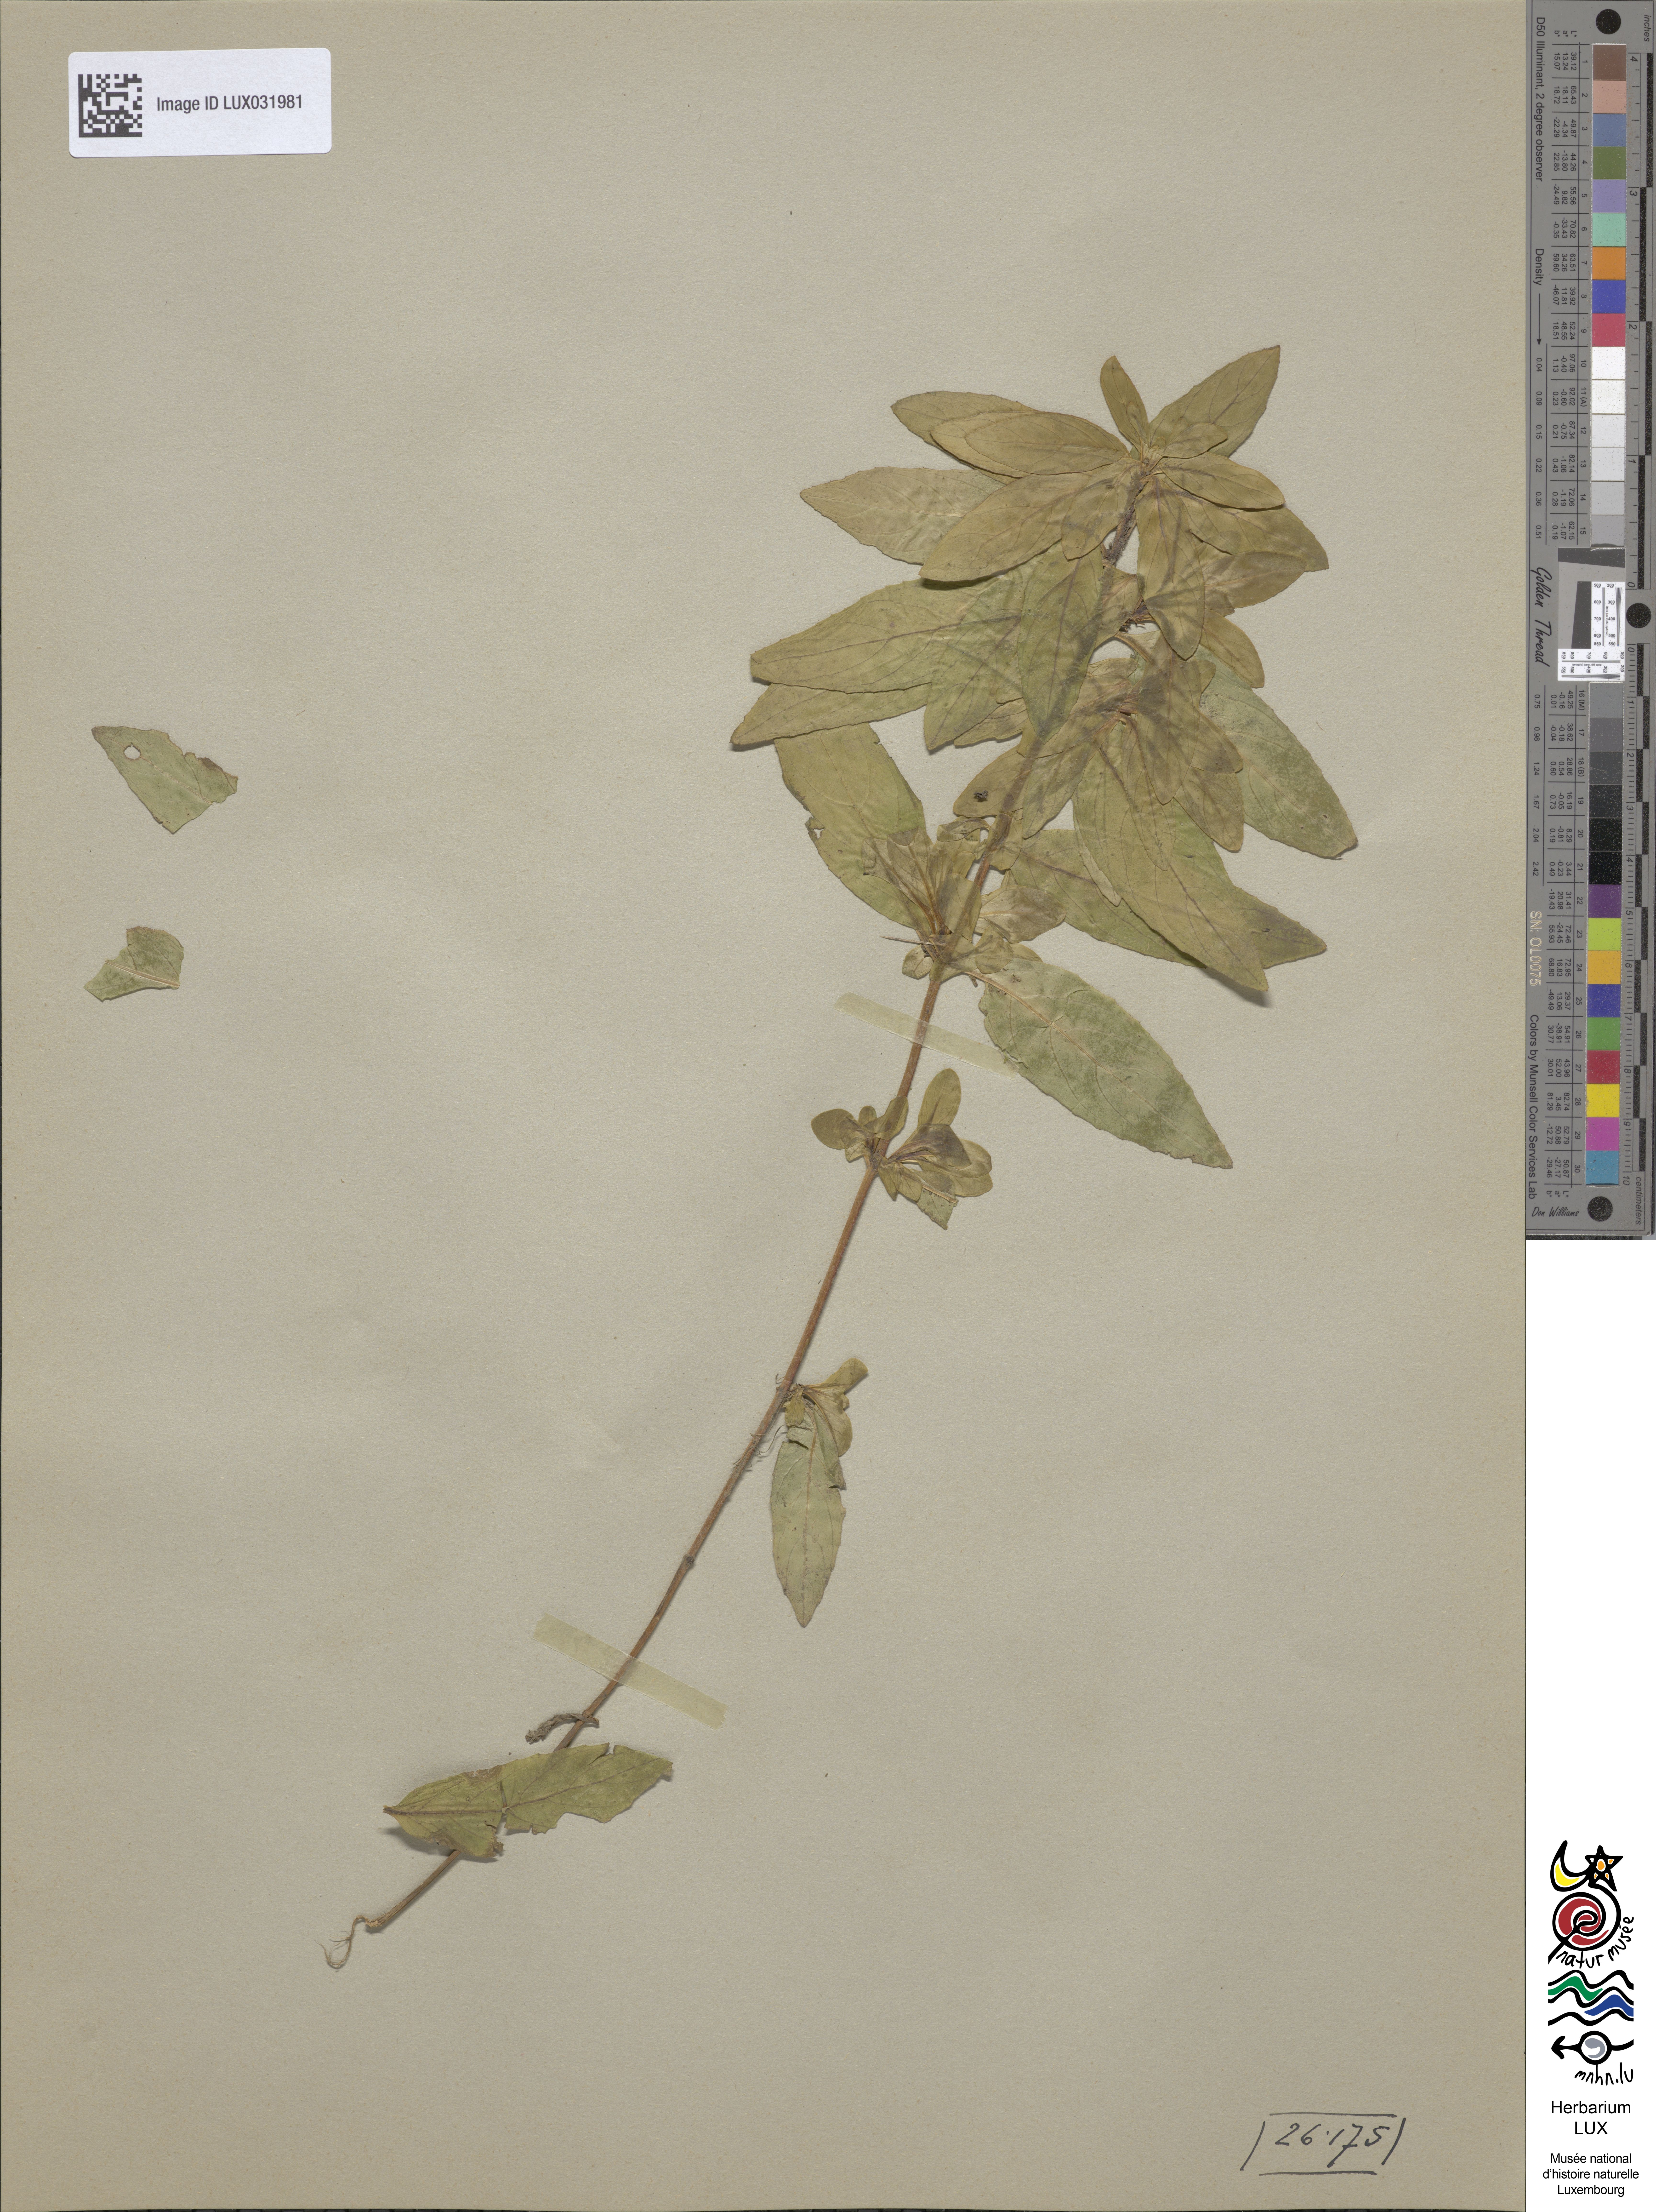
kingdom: Plantae
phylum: Tracheophyta
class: Magnoliopsida
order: Myrtales
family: Onagraceae
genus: Epilobium
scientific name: Epilobium parviflorum
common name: Hoary willowherb
